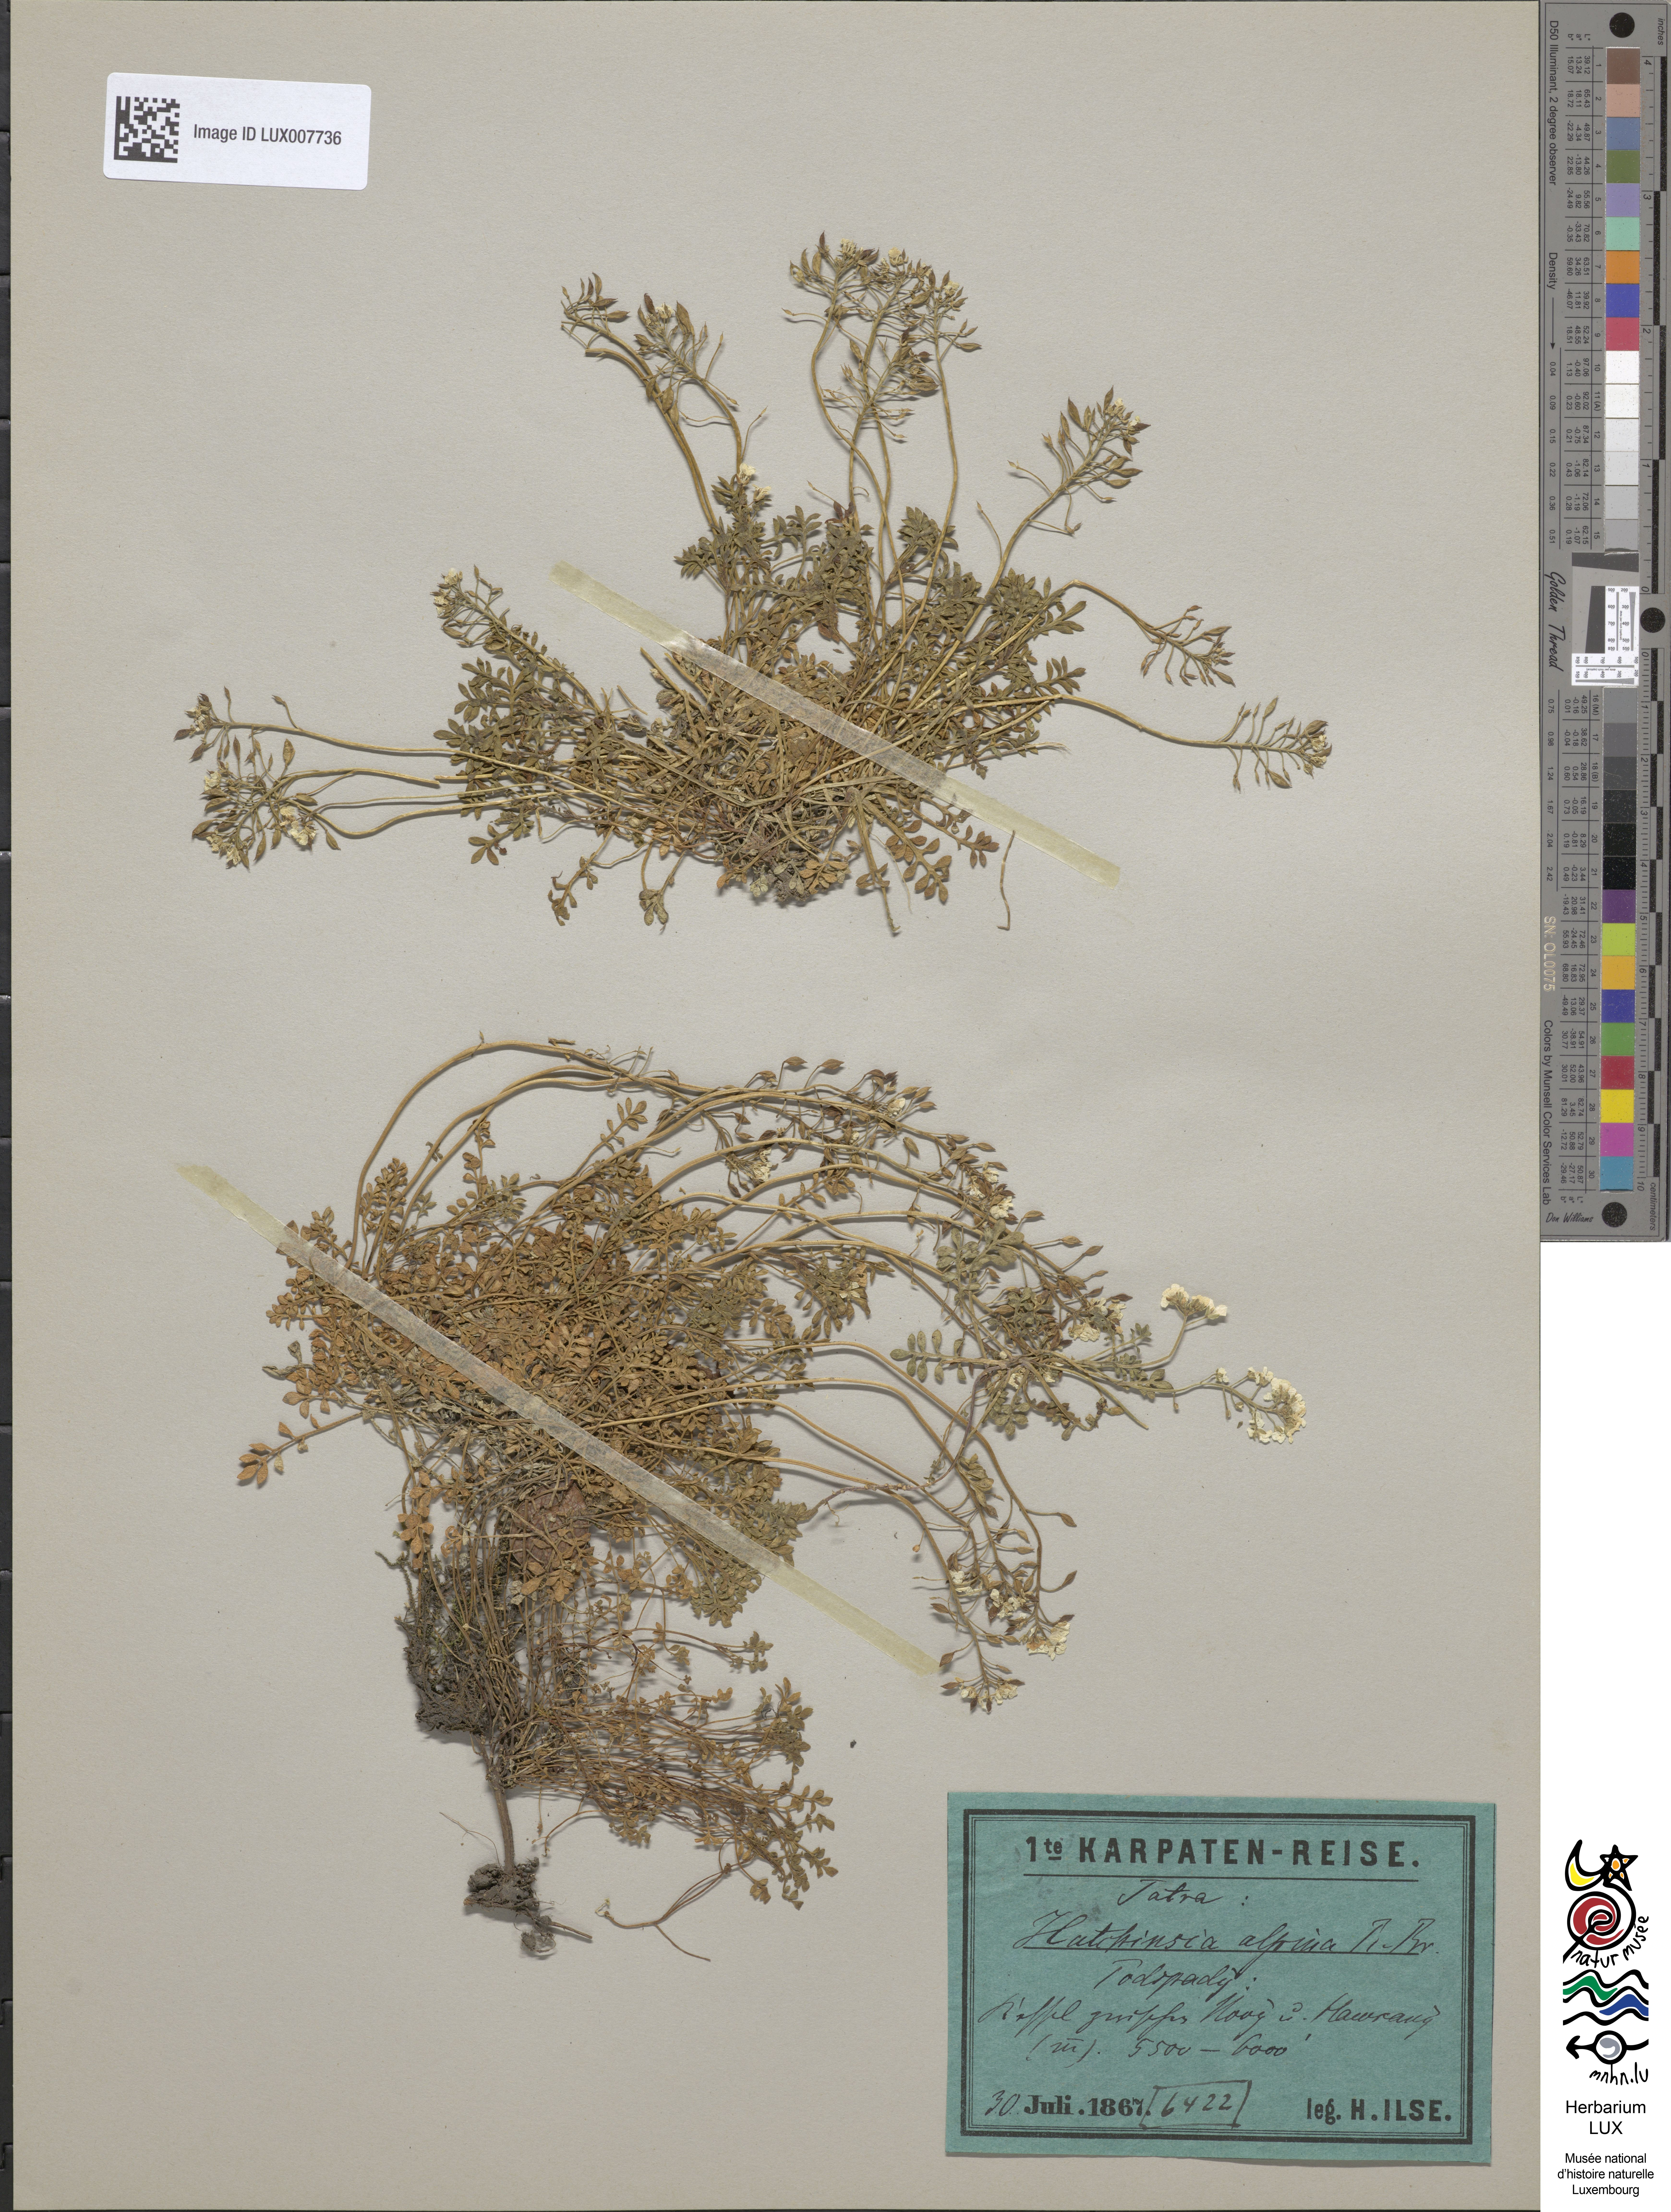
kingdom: Plantae
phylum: Tracheophyta
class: Magnoliopsida
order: Brassicales
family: Brassicaceae
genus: Hornungia
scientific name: Hornungia alpina
